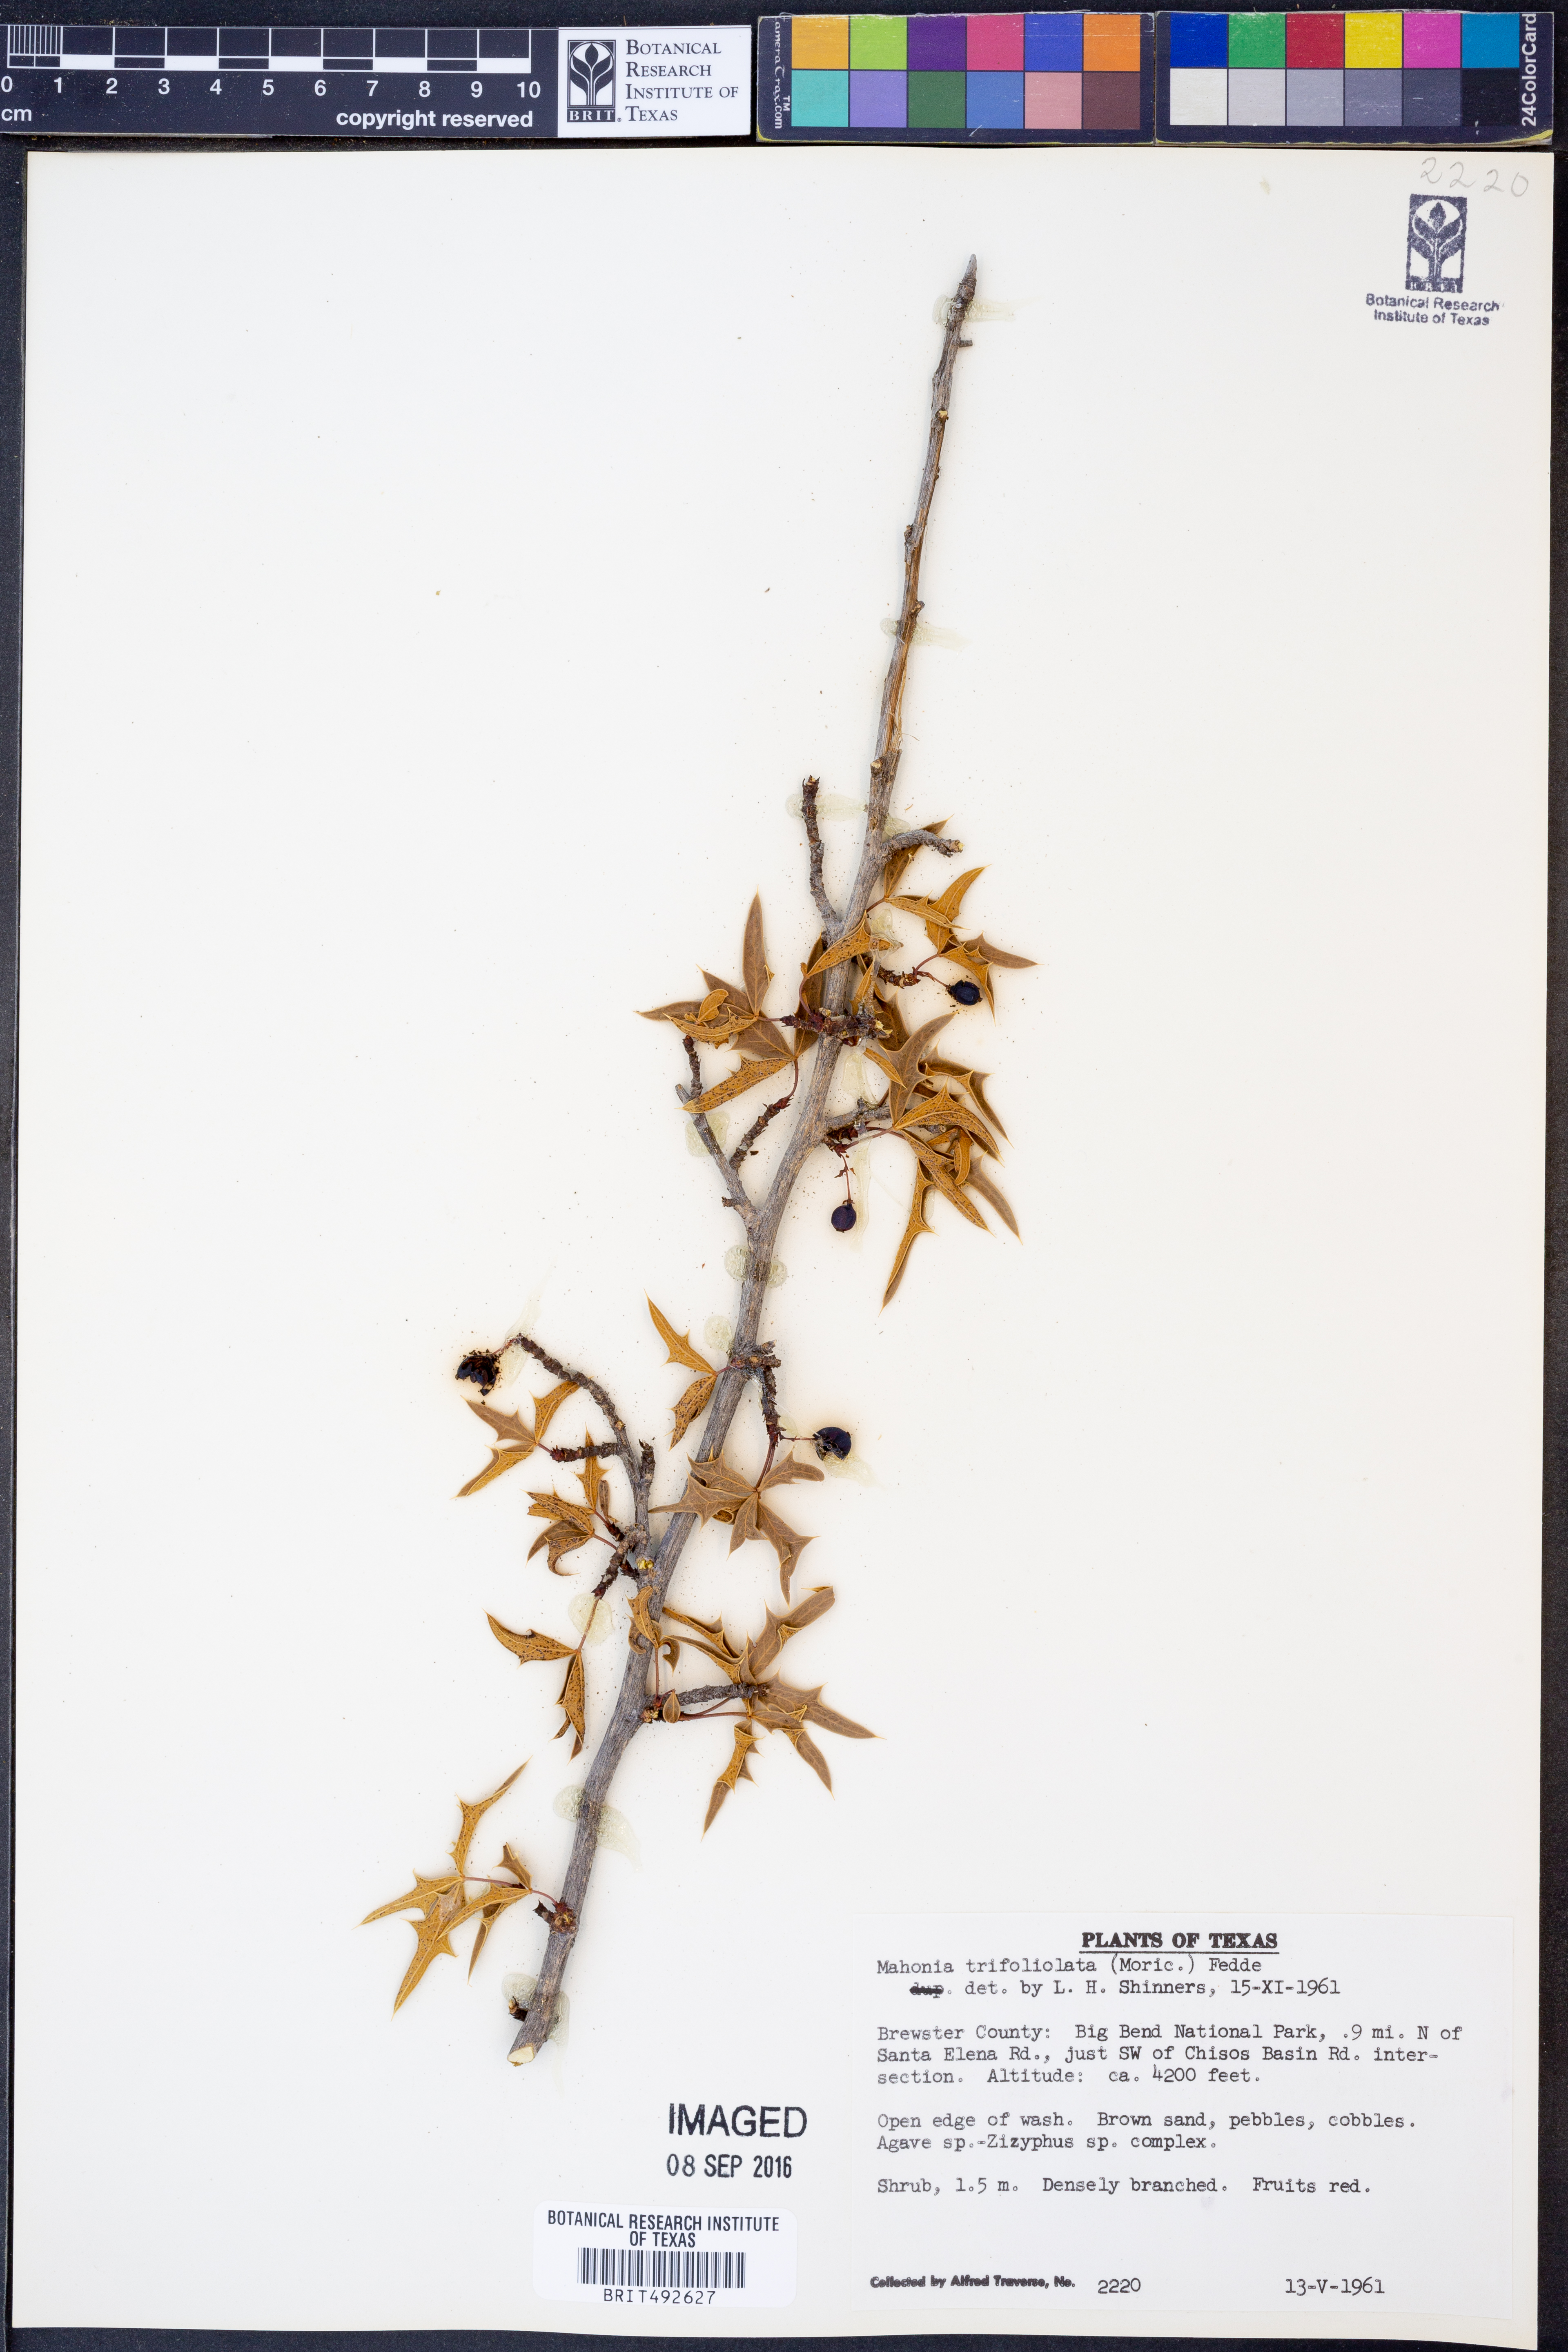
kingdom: Plantae
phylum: Tracheophyta
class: Magnoliopsida
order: Ranunculales
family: Berberidaceae
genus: Alloberberis
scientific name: Alloberberis trifoliolata
